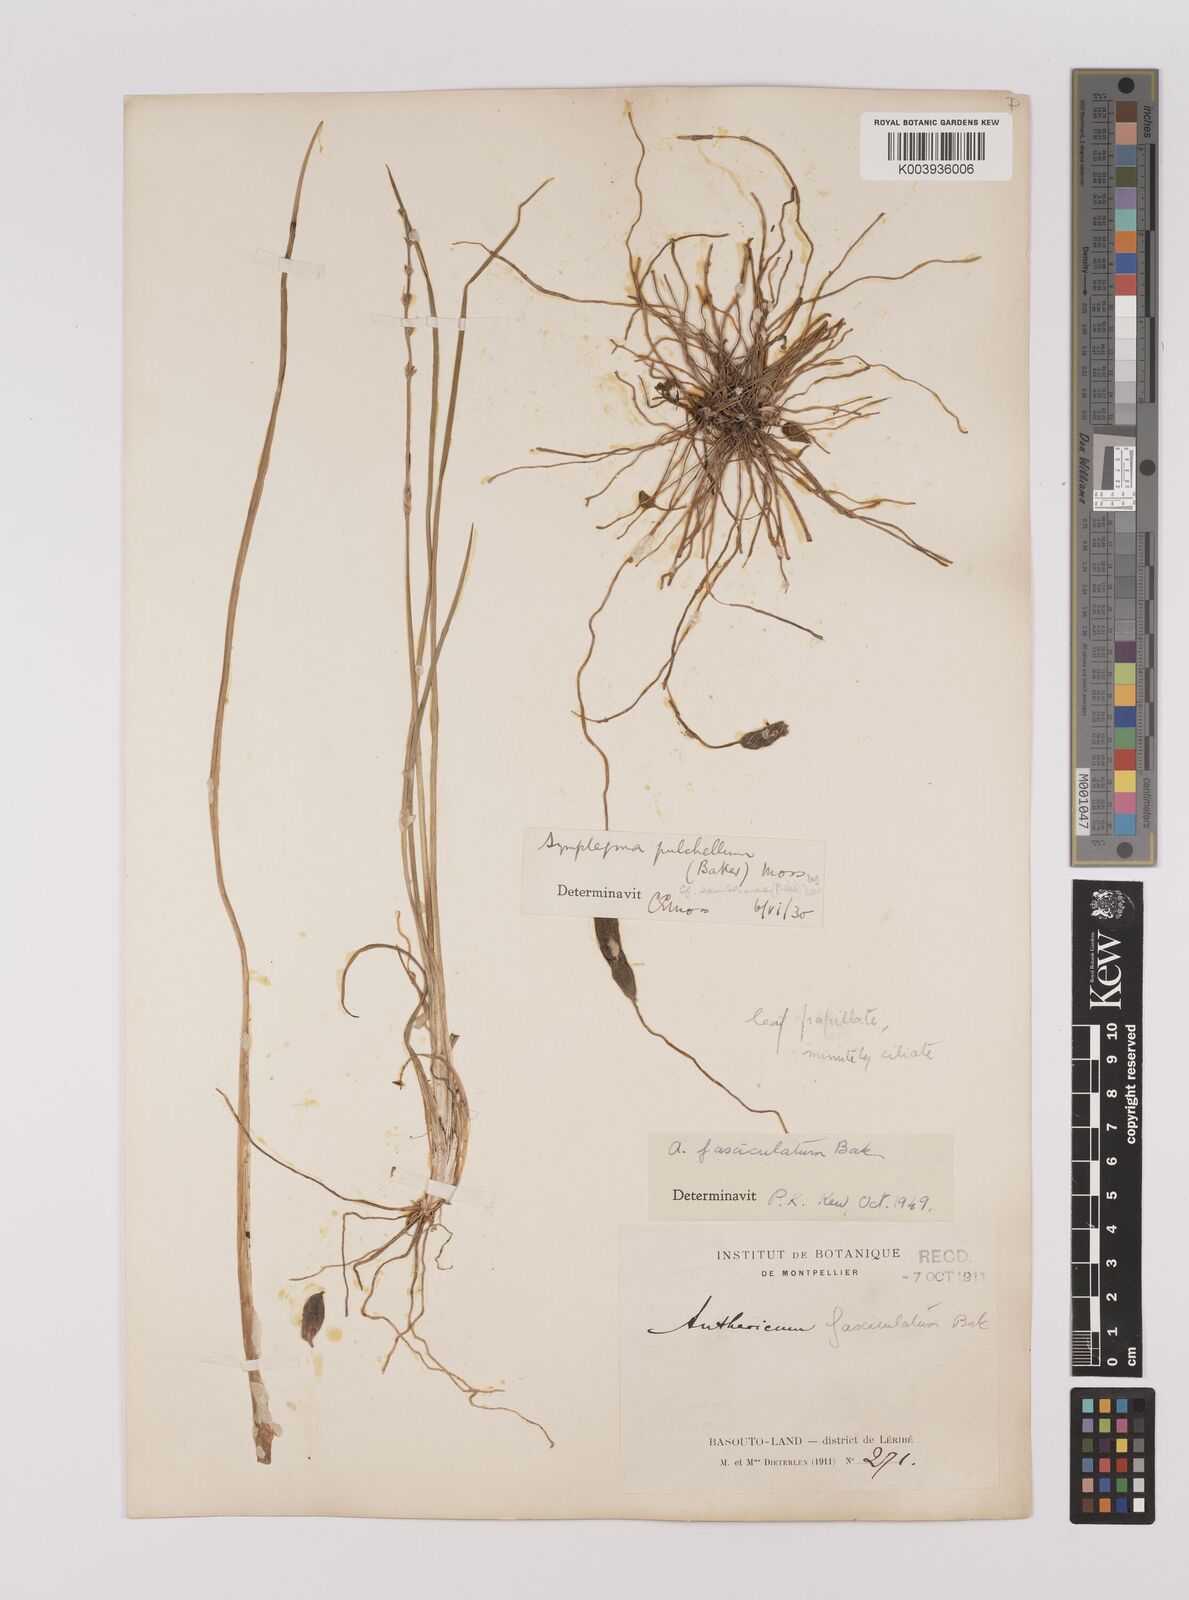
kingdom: Plantae
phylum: Tracheophyta
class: Liliopsida
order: Asparagales
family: Asparagaceae
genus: Chlorophytum
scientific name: Chlorophytum cooperi
